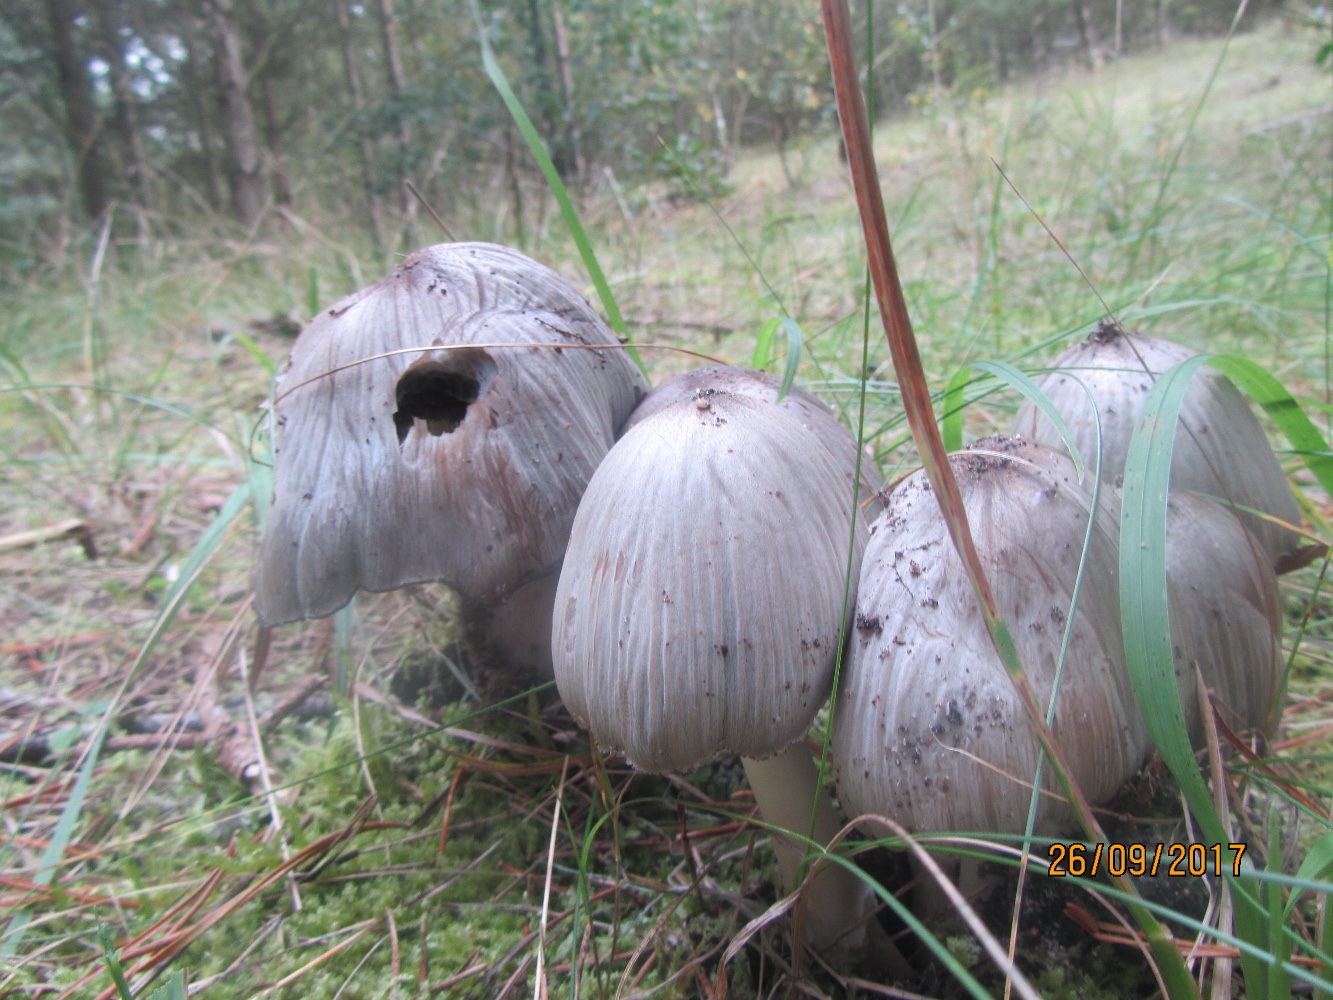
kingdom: Fungi
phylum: Basidiomycota
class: Agaricomycetes
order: Agaricales
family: Psathyrellaceae
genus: Coprinopsis
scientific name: Coprinopsis atramentaria
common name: almindelig blækhat
